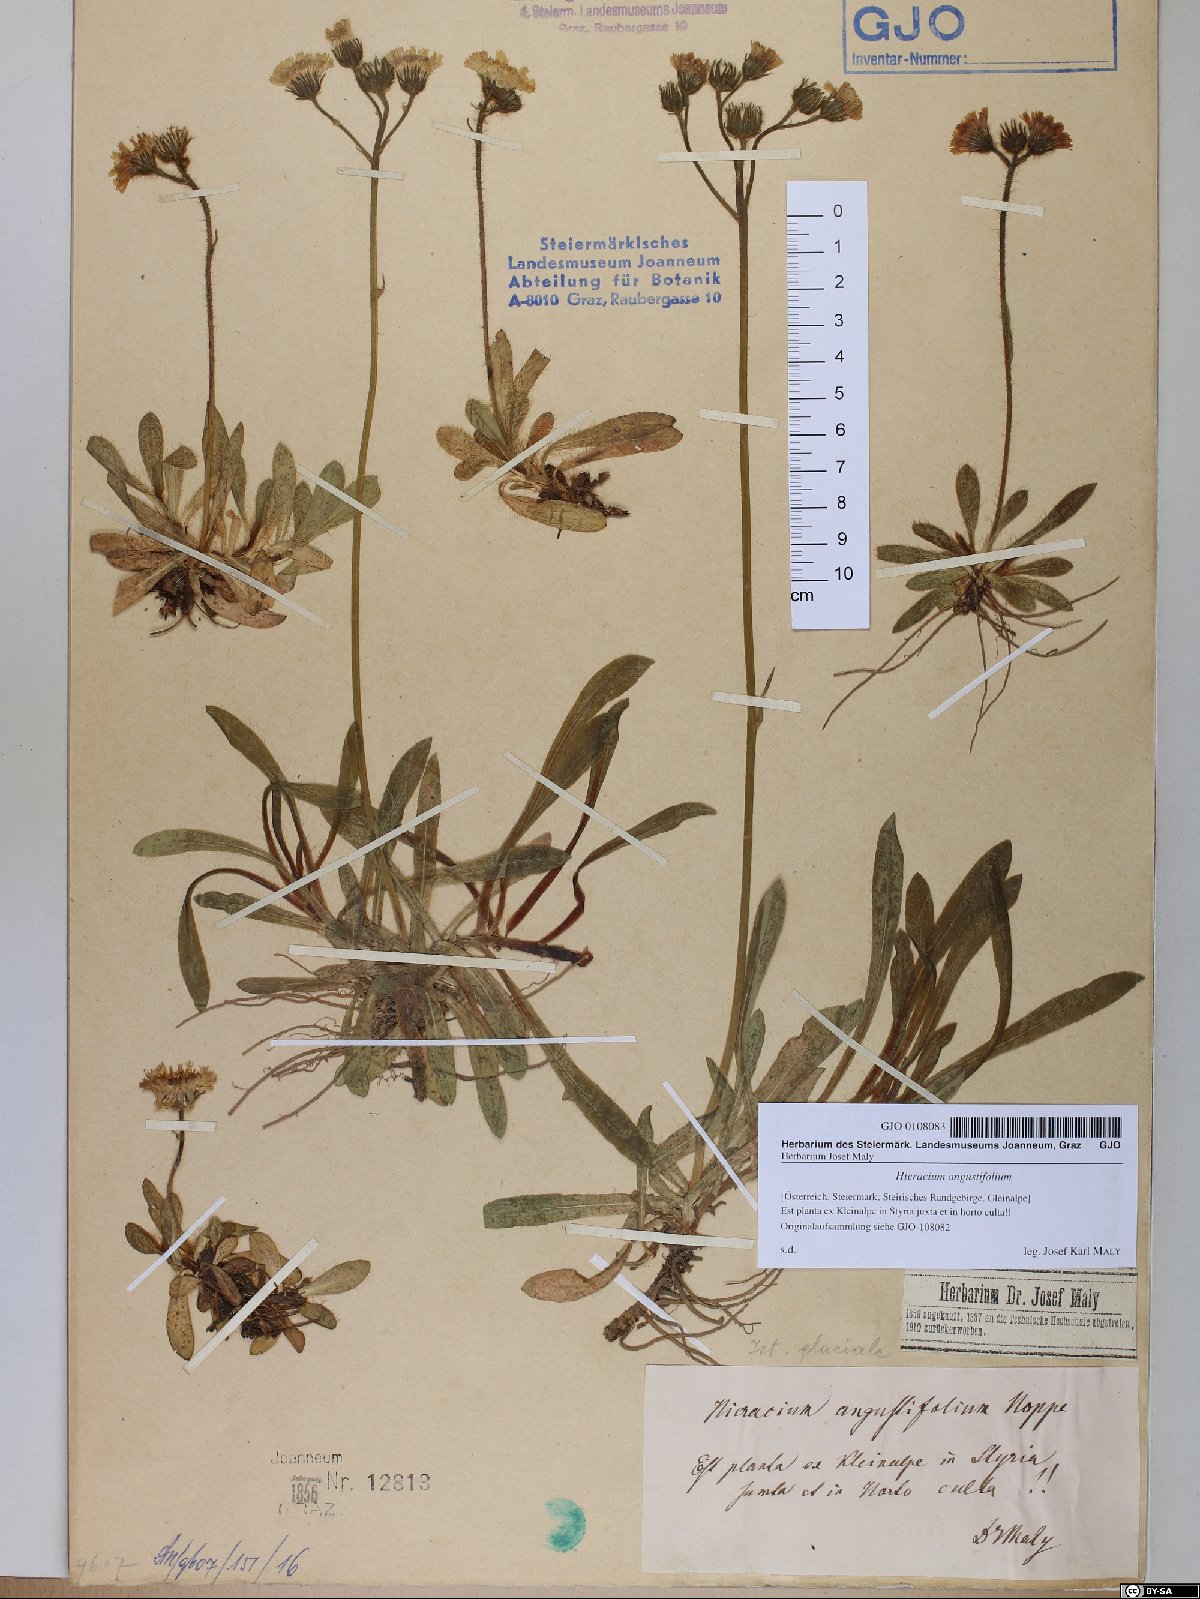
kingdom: Plantae
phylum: Tracheophyta
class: Magnoliopsida
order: Asterales
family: Asteraceae
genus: Pilosella
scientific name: Pilosella glacialis
